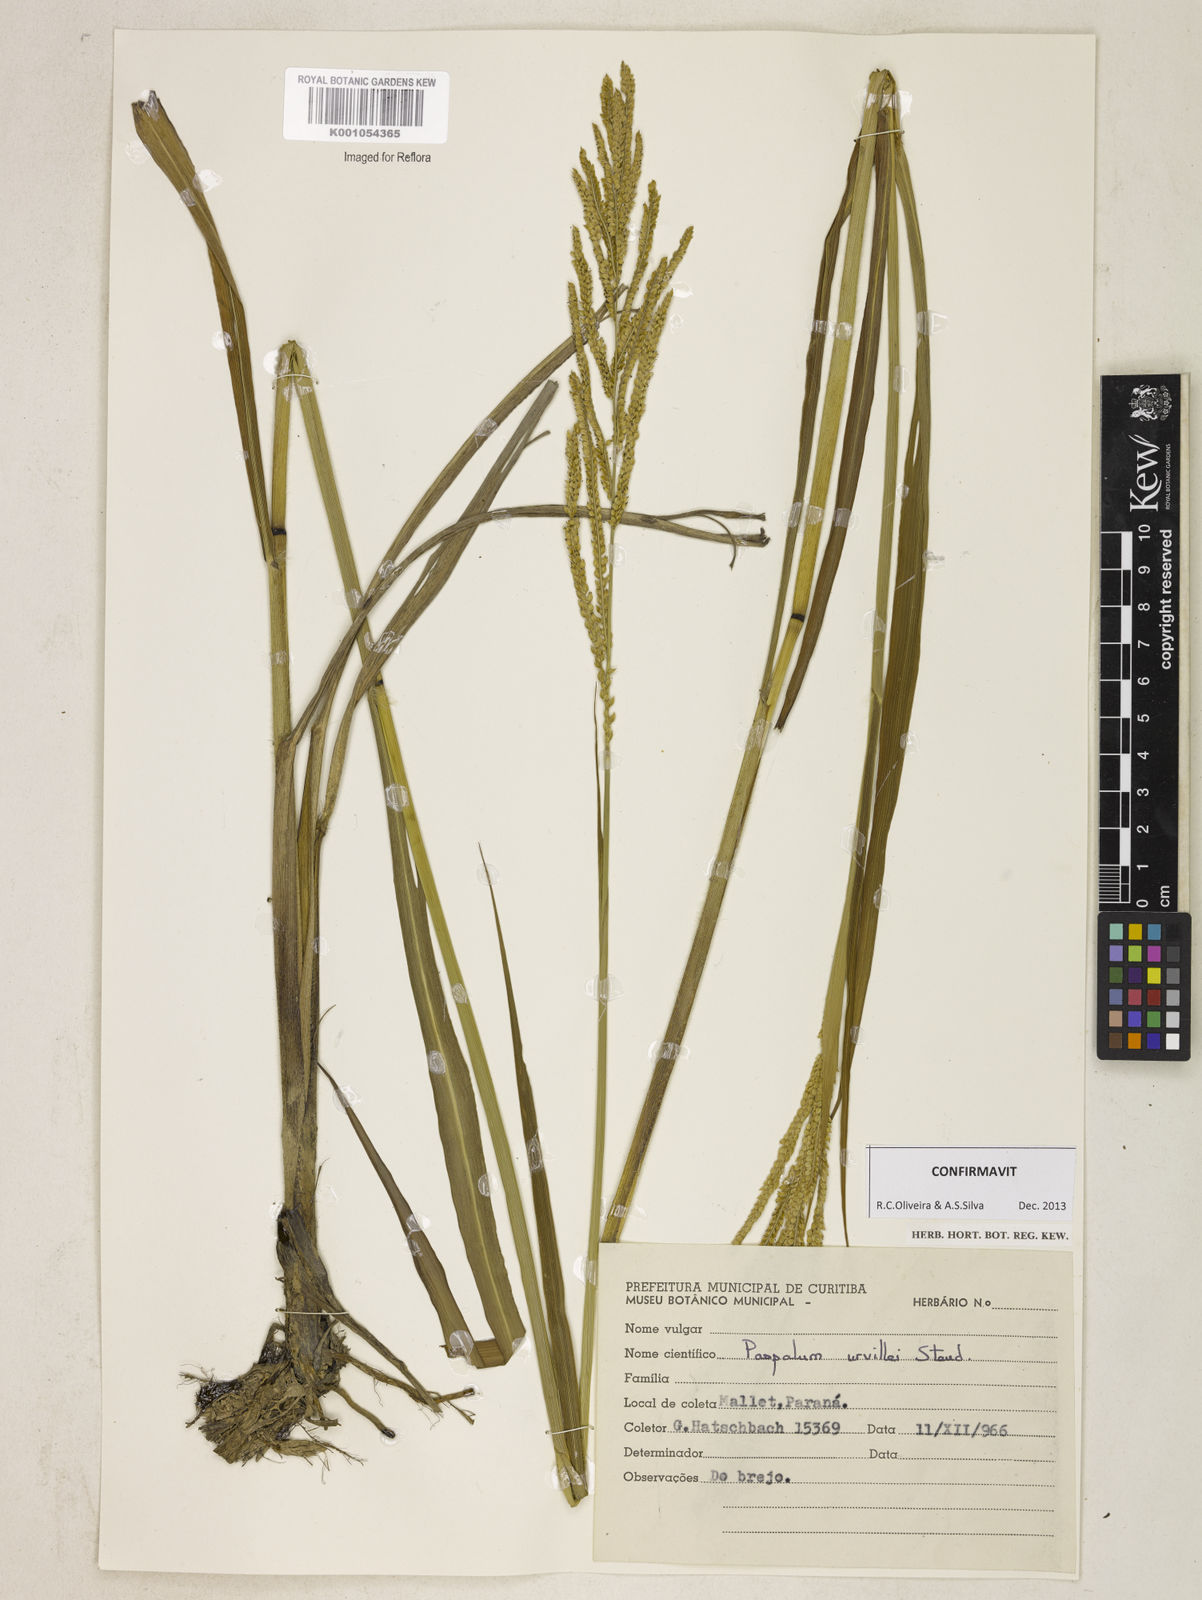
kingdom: Plantae
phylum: Tracheophyta
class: Liliopsida
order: Poales
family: Poaceae
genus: Paspalum
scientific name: Paspalum urvillei
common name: Vasey's grass
